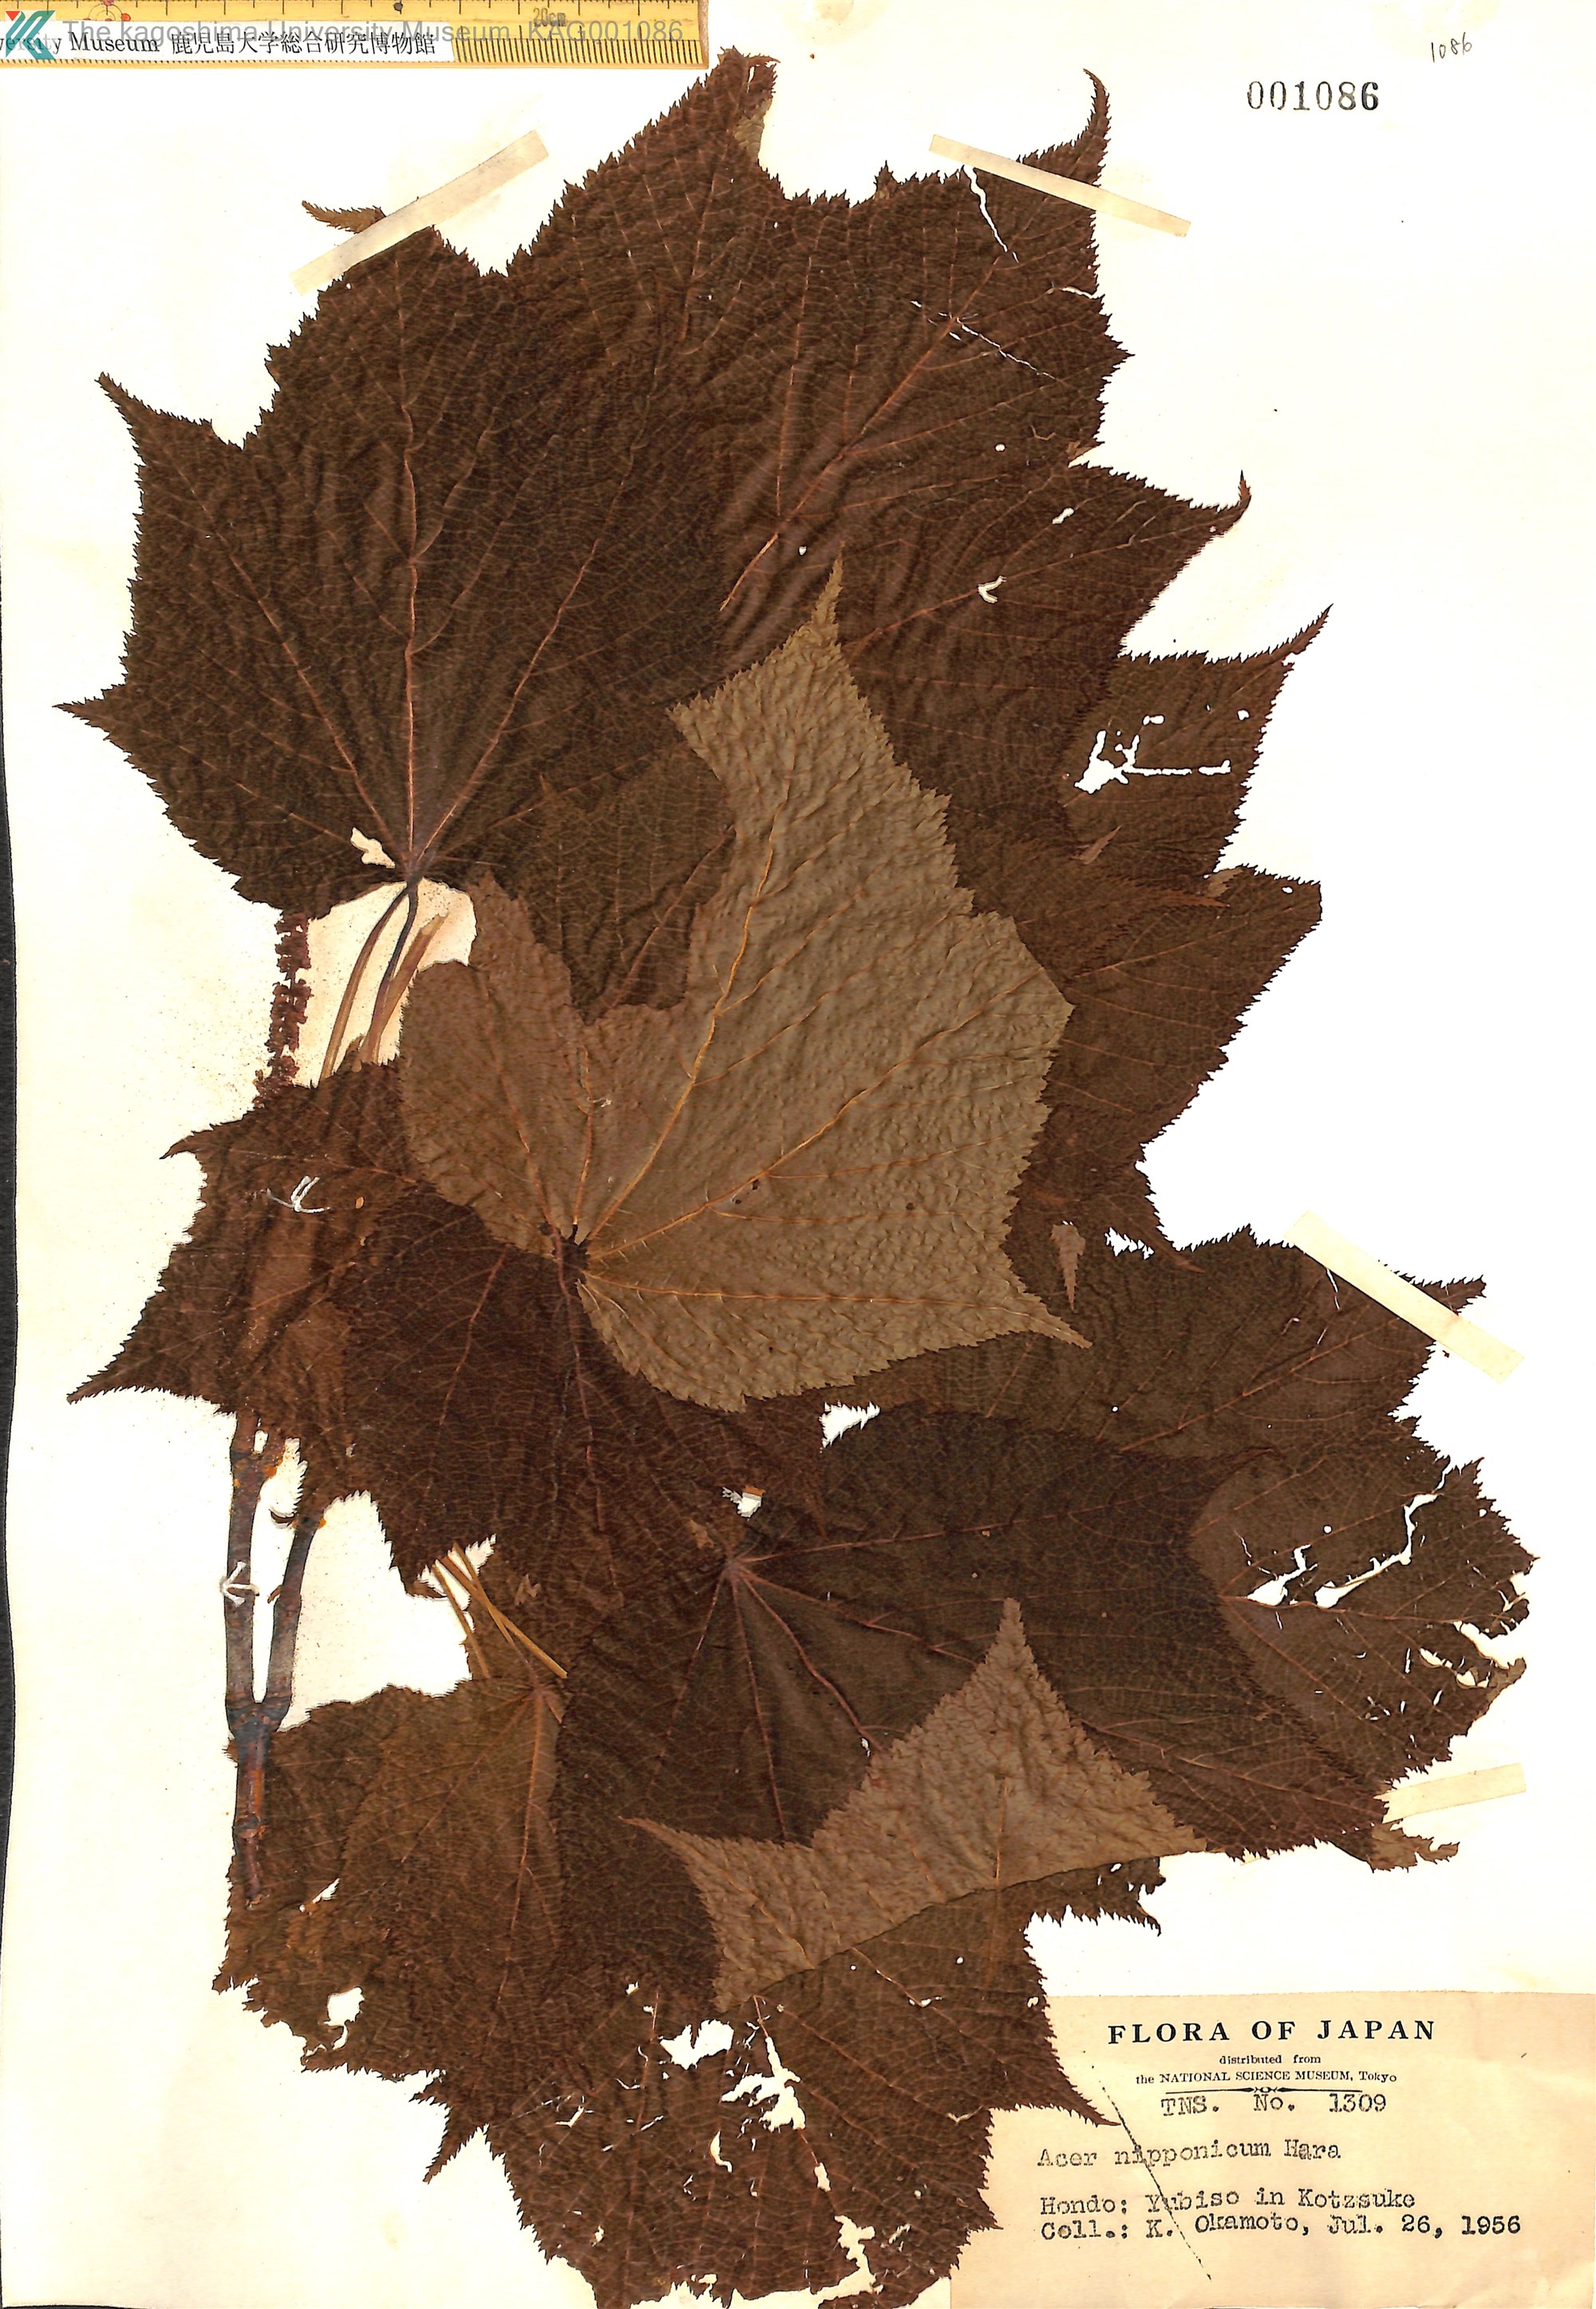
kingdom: Plantae
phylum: Tracheophyta
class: Magnoliopsida
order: Sapindales
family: Sapindaceae
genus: Acer
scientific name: Acer nipponicum
